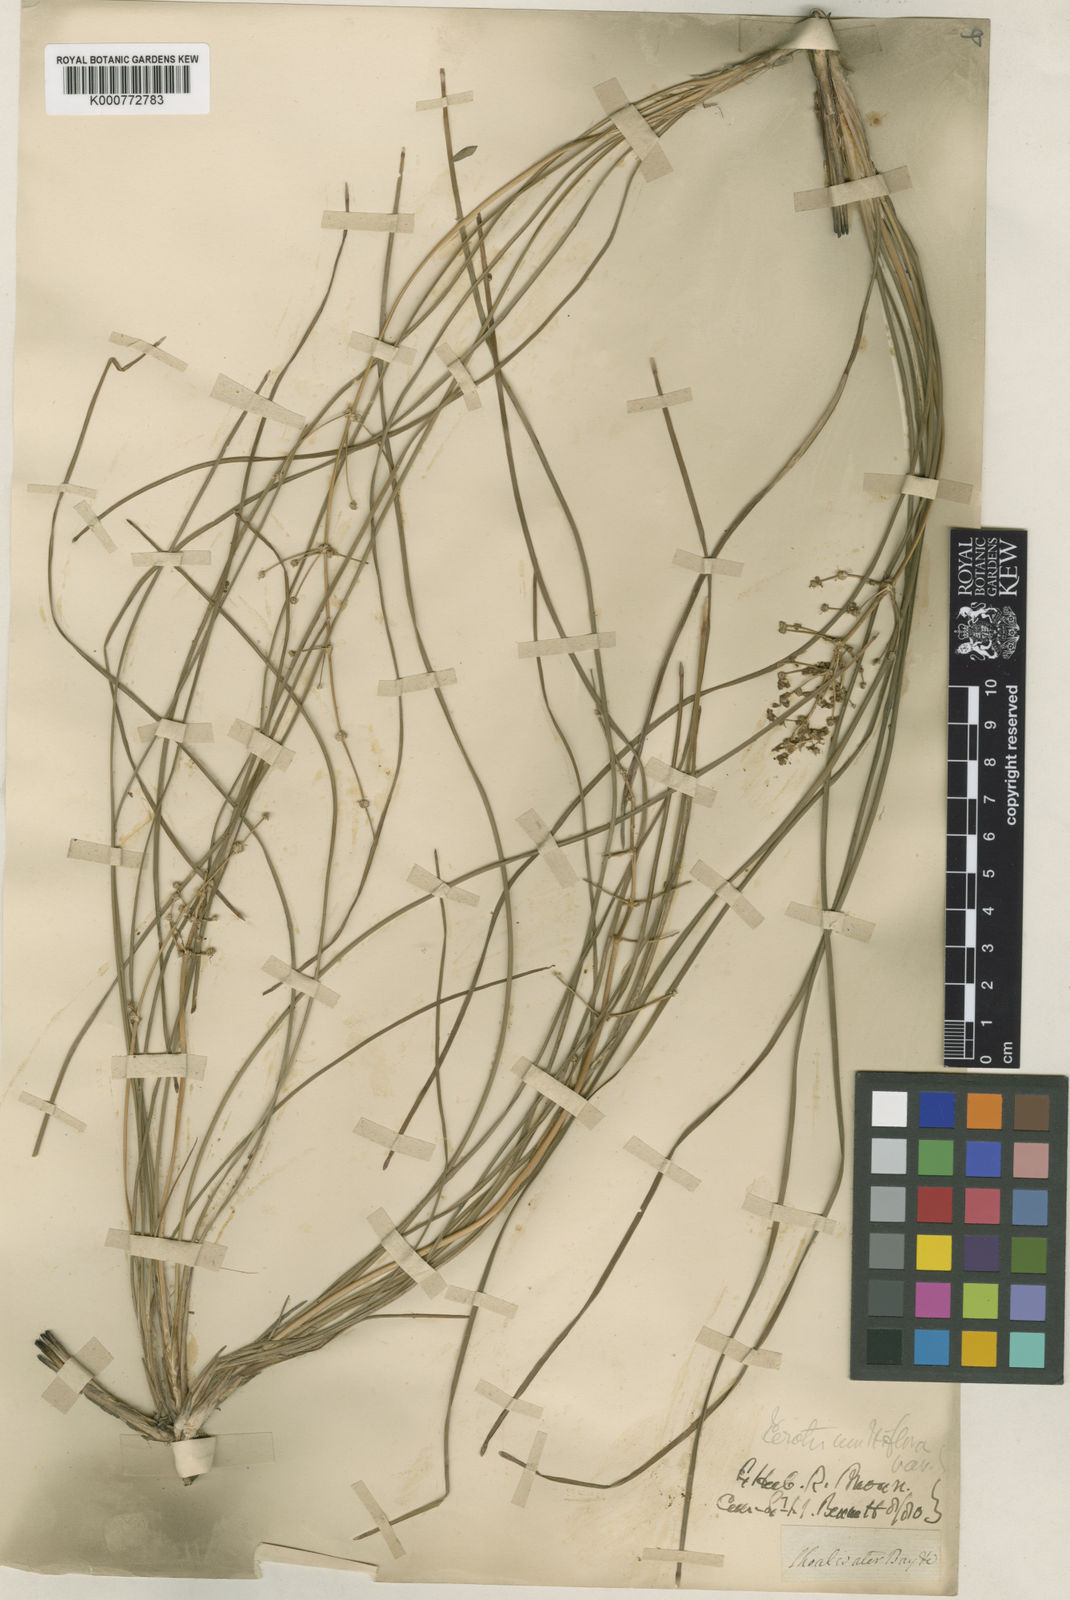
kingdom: Plantae
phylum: Tracheophyta
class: Liliopsida
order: Asparagales
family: Asparagaceae
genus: Lomandra
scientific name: Lomandra multiflora
